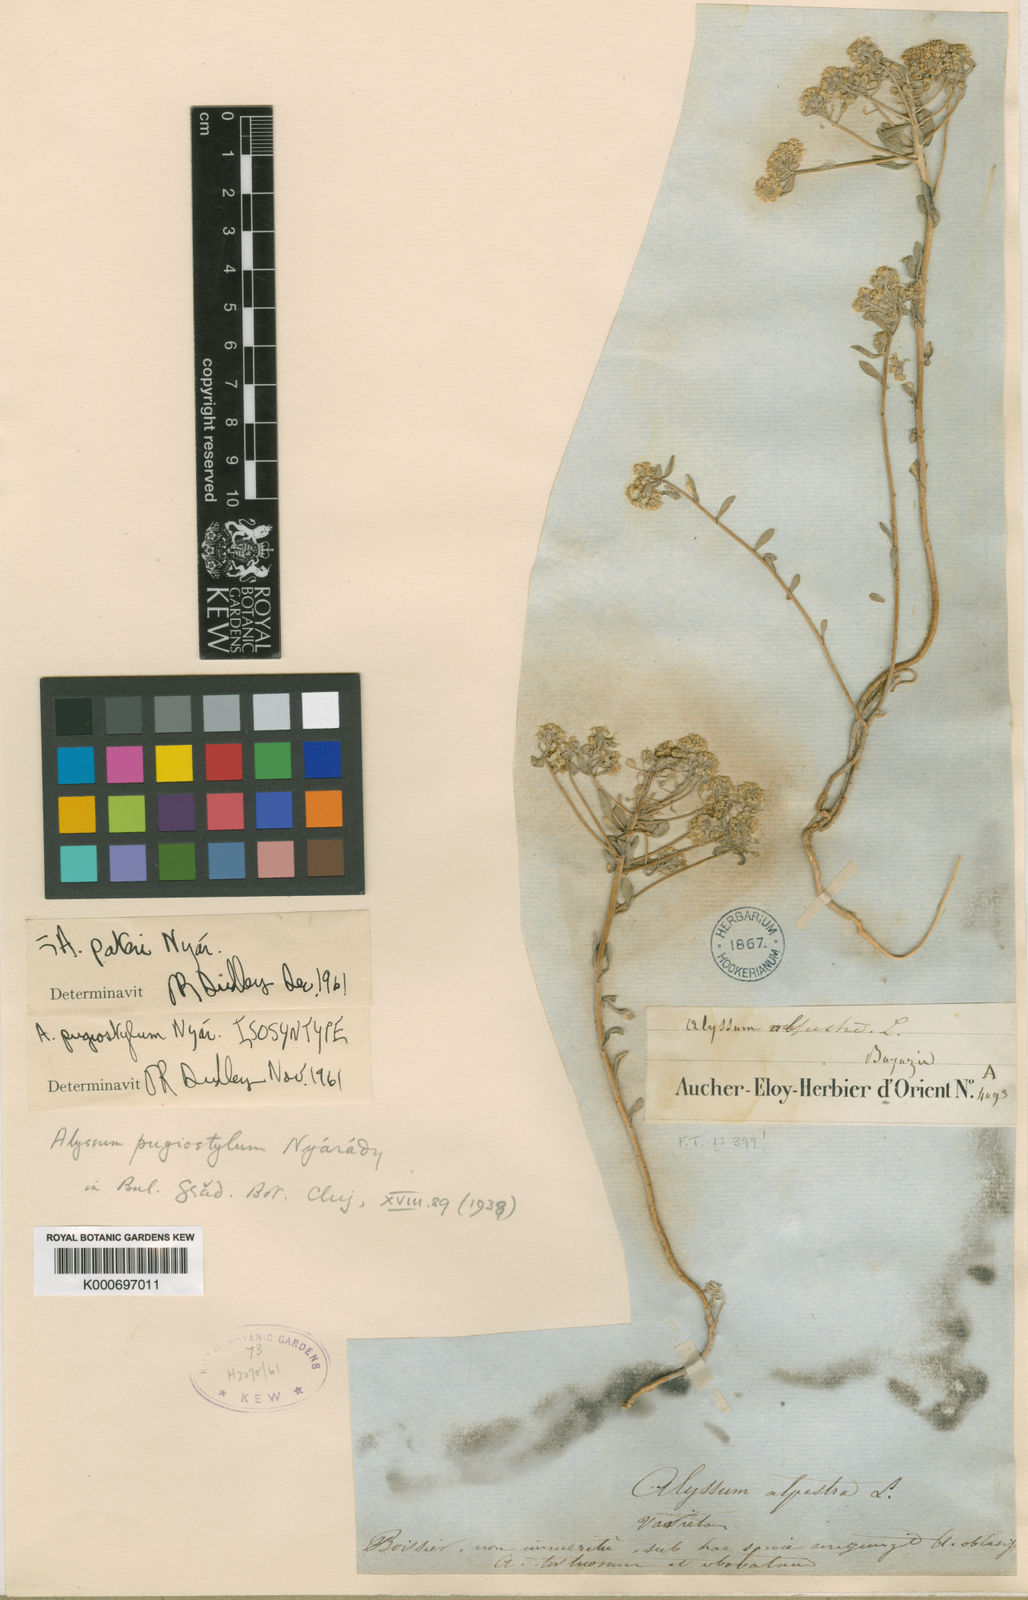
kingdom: Plantae
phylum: Tracheophyta
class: Magnoliopsida
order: Brassicales
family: Brassicaceae
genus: Odontarrhena
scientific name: Odontarrhena pugiostyla
